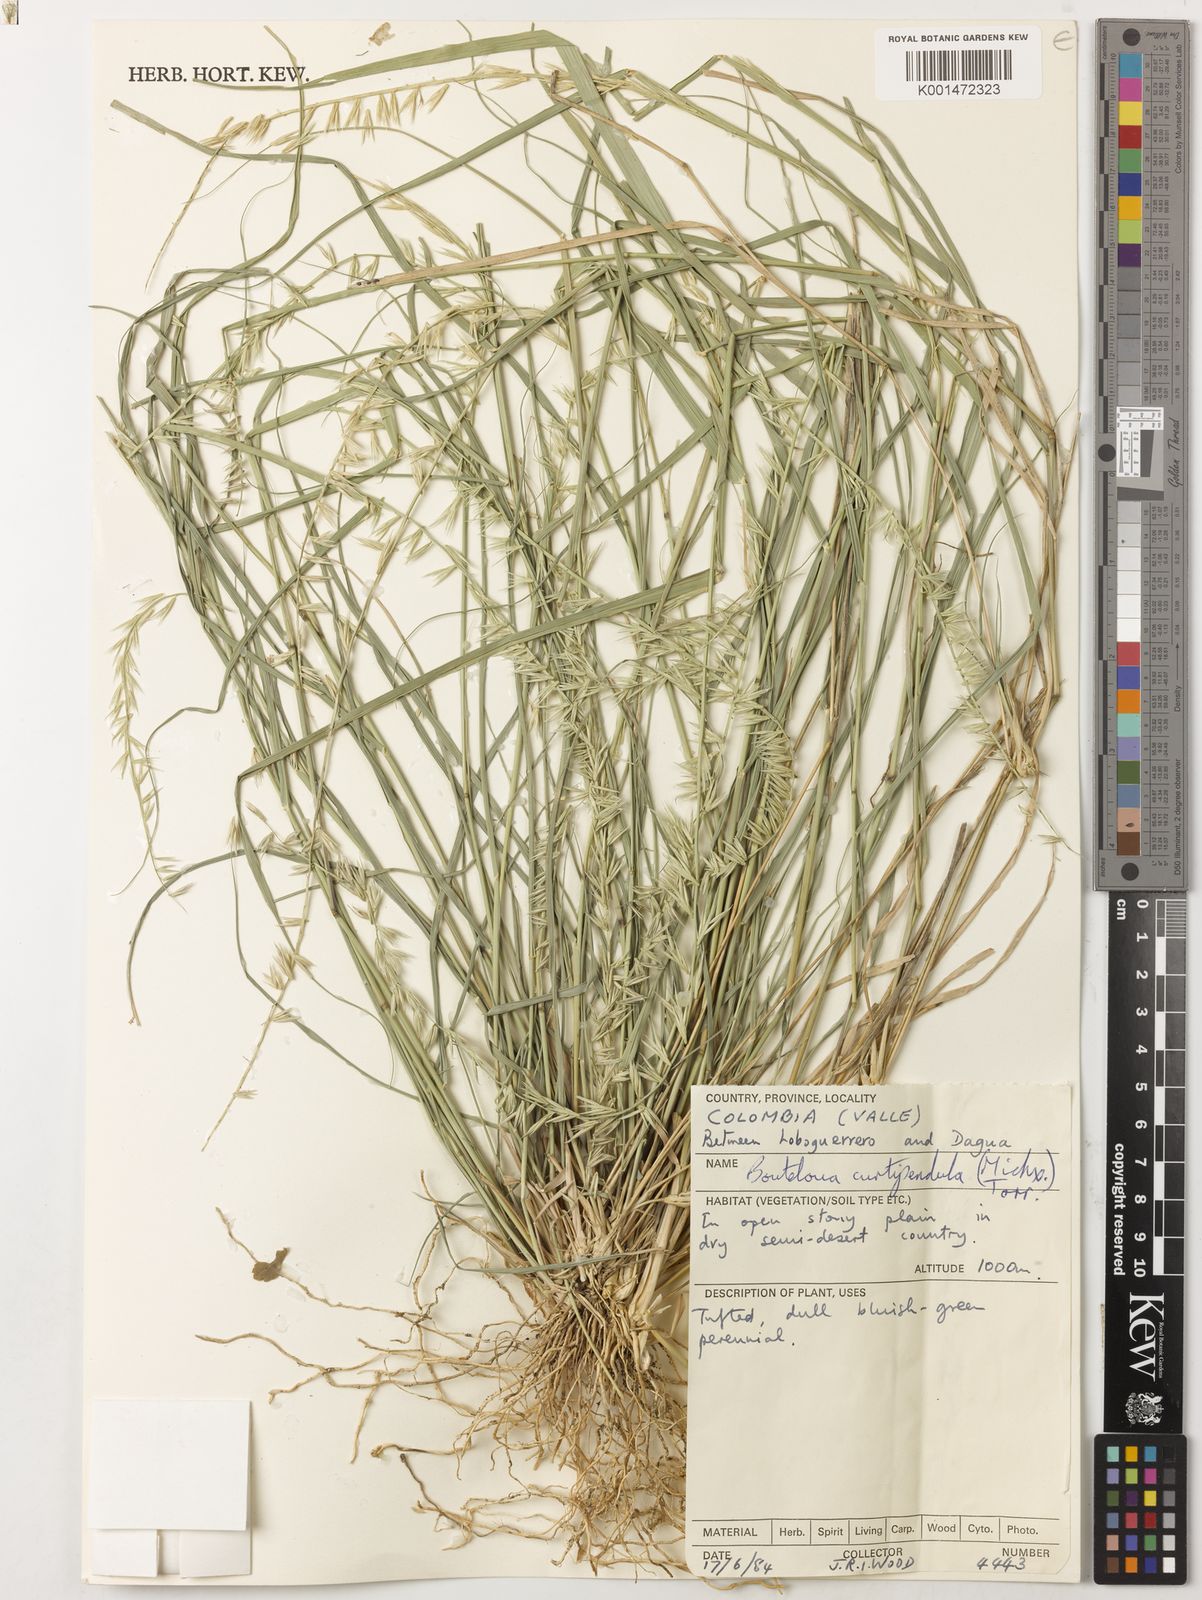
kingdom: Plantae
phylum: Tracheophyta
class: Liliopsida
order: Poales
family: Poaceae
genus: Bouteloua
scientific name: Bouteloua curtipendula
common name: Side-oats grama
